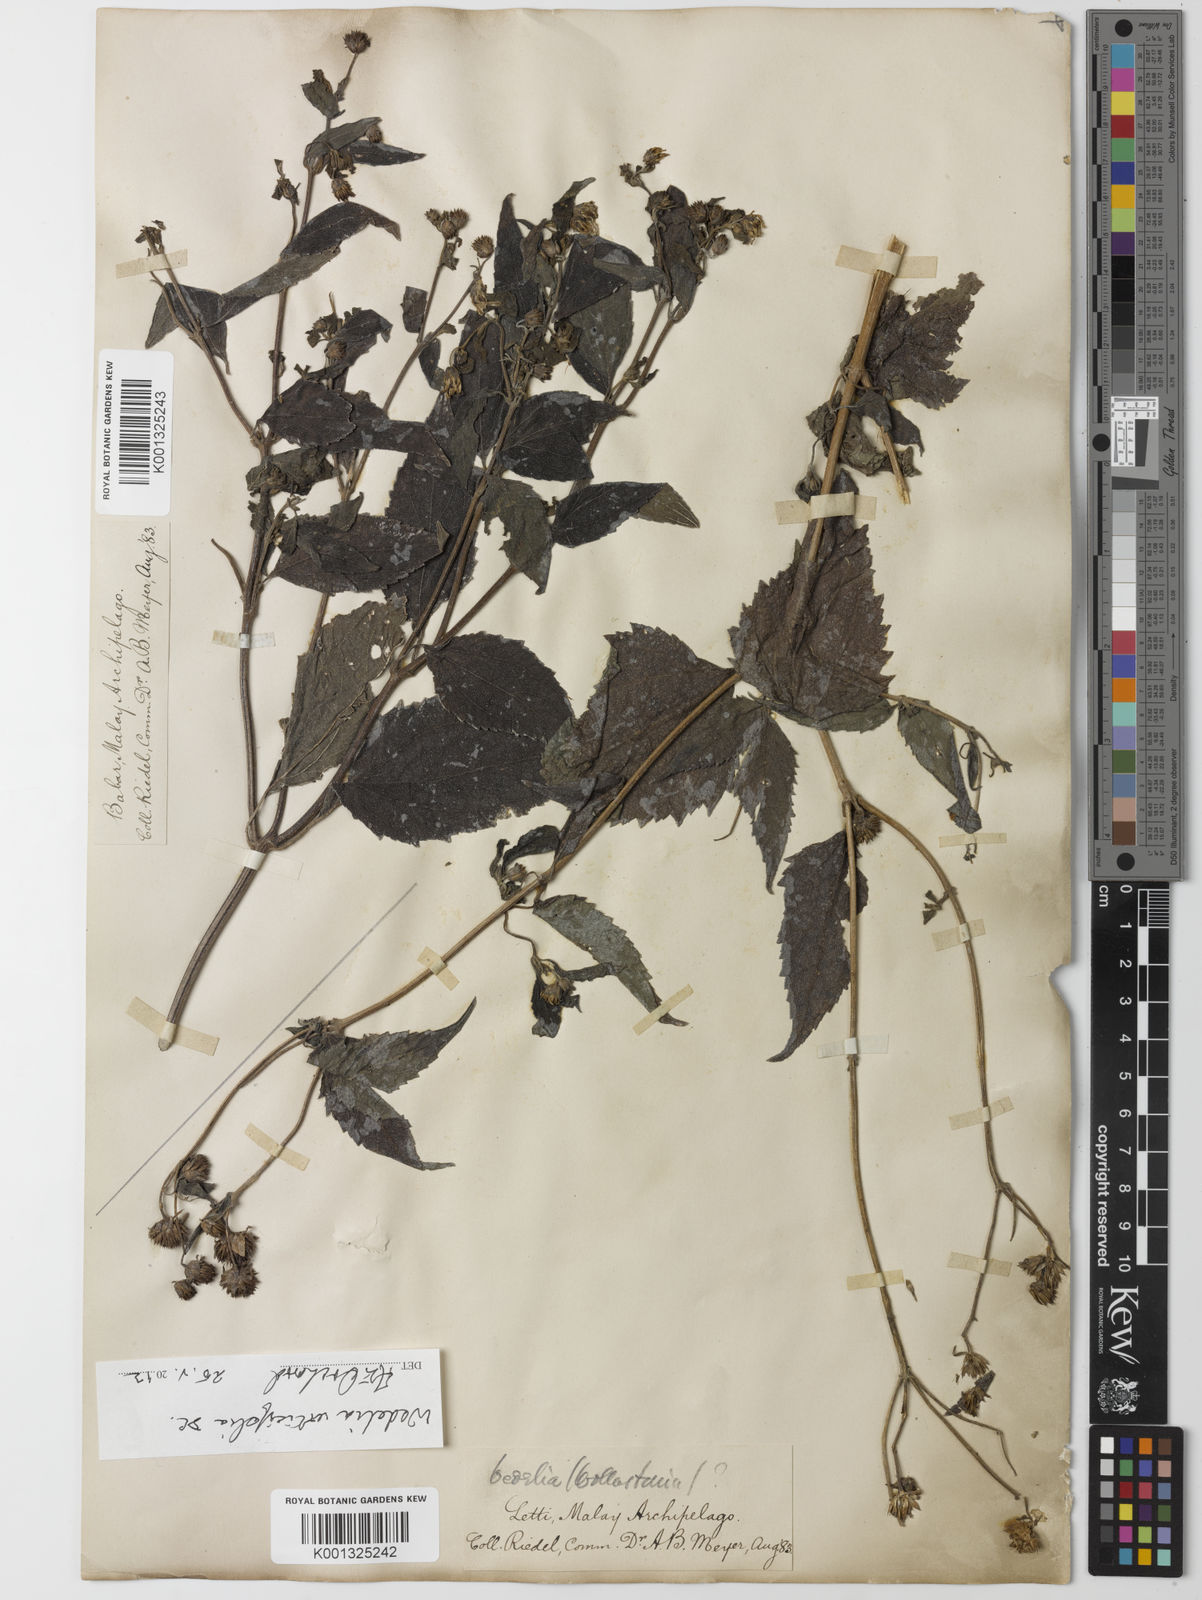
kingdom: Plantae
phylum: Tracheophyta
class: Magnoliopsida
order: Asterales
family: Asteraceae
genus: Lipoblepharis
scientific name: Lipoblepharis urticifolia
